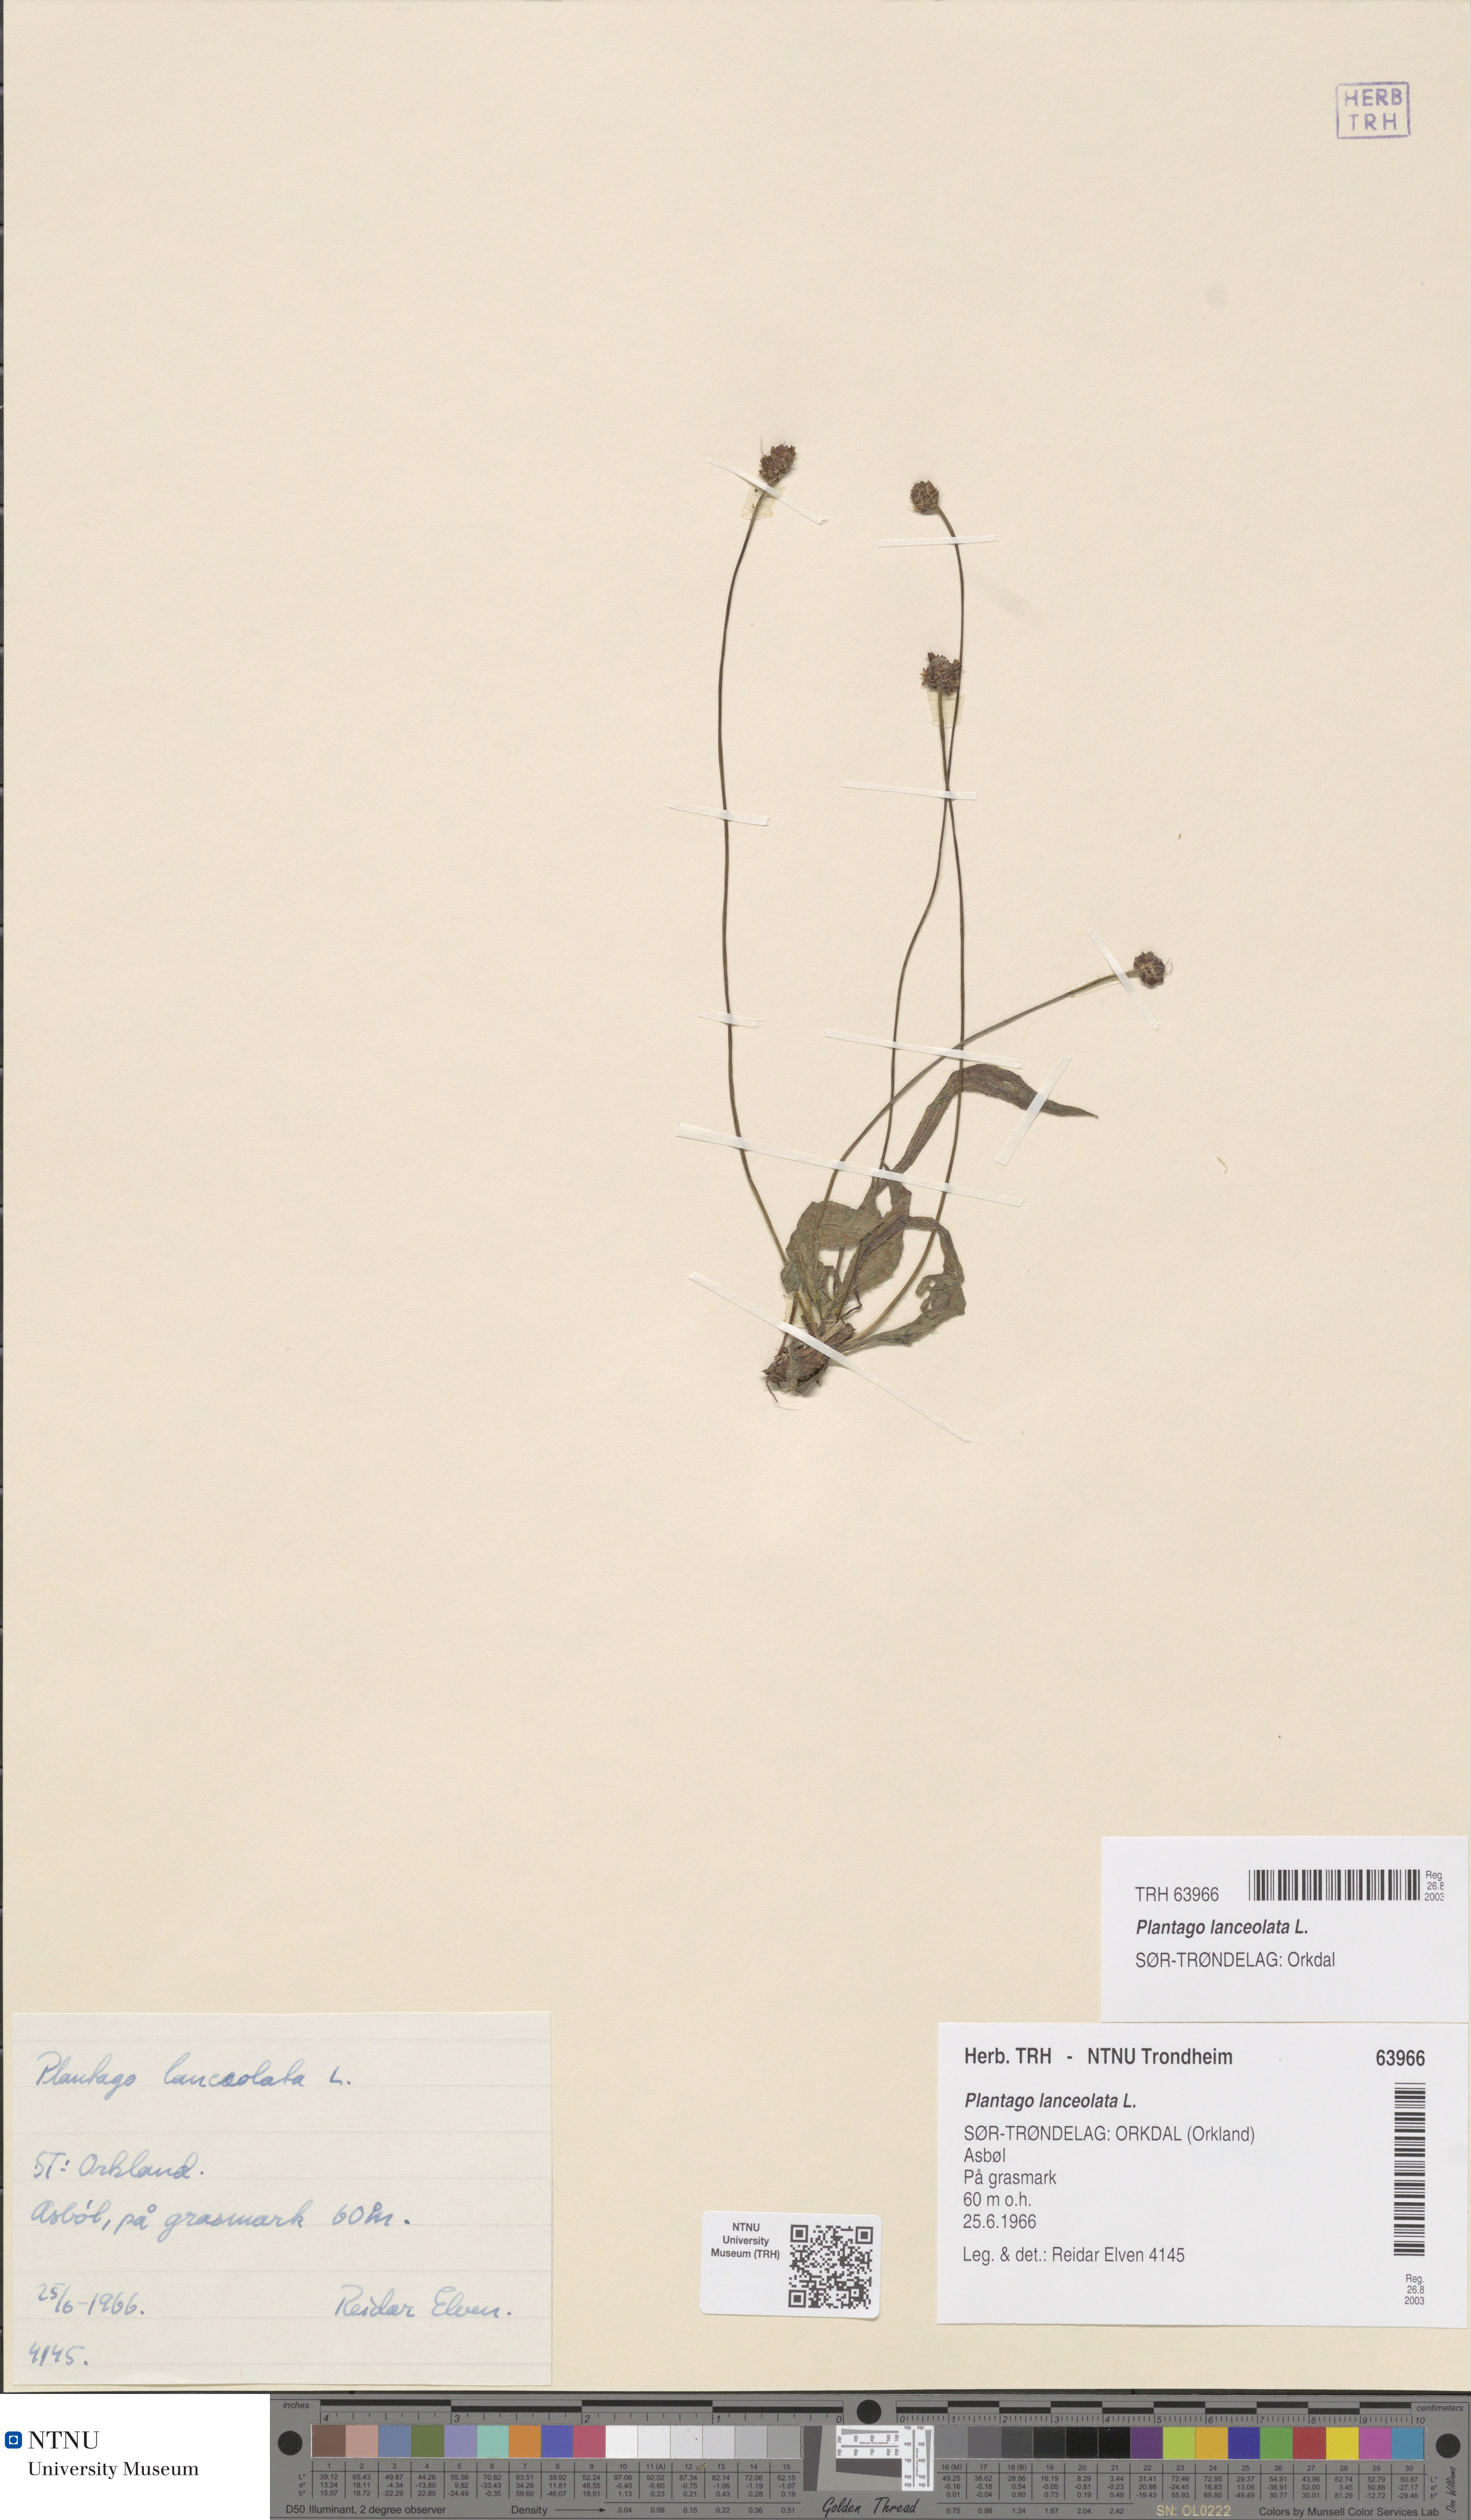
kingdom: Plantae
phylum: Tracheophyta
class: Magnoliopsida
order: Lamiales
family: Plantaginaceae
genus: Plantago
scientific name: Plantago lanceolata
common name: Ribwort plantain
